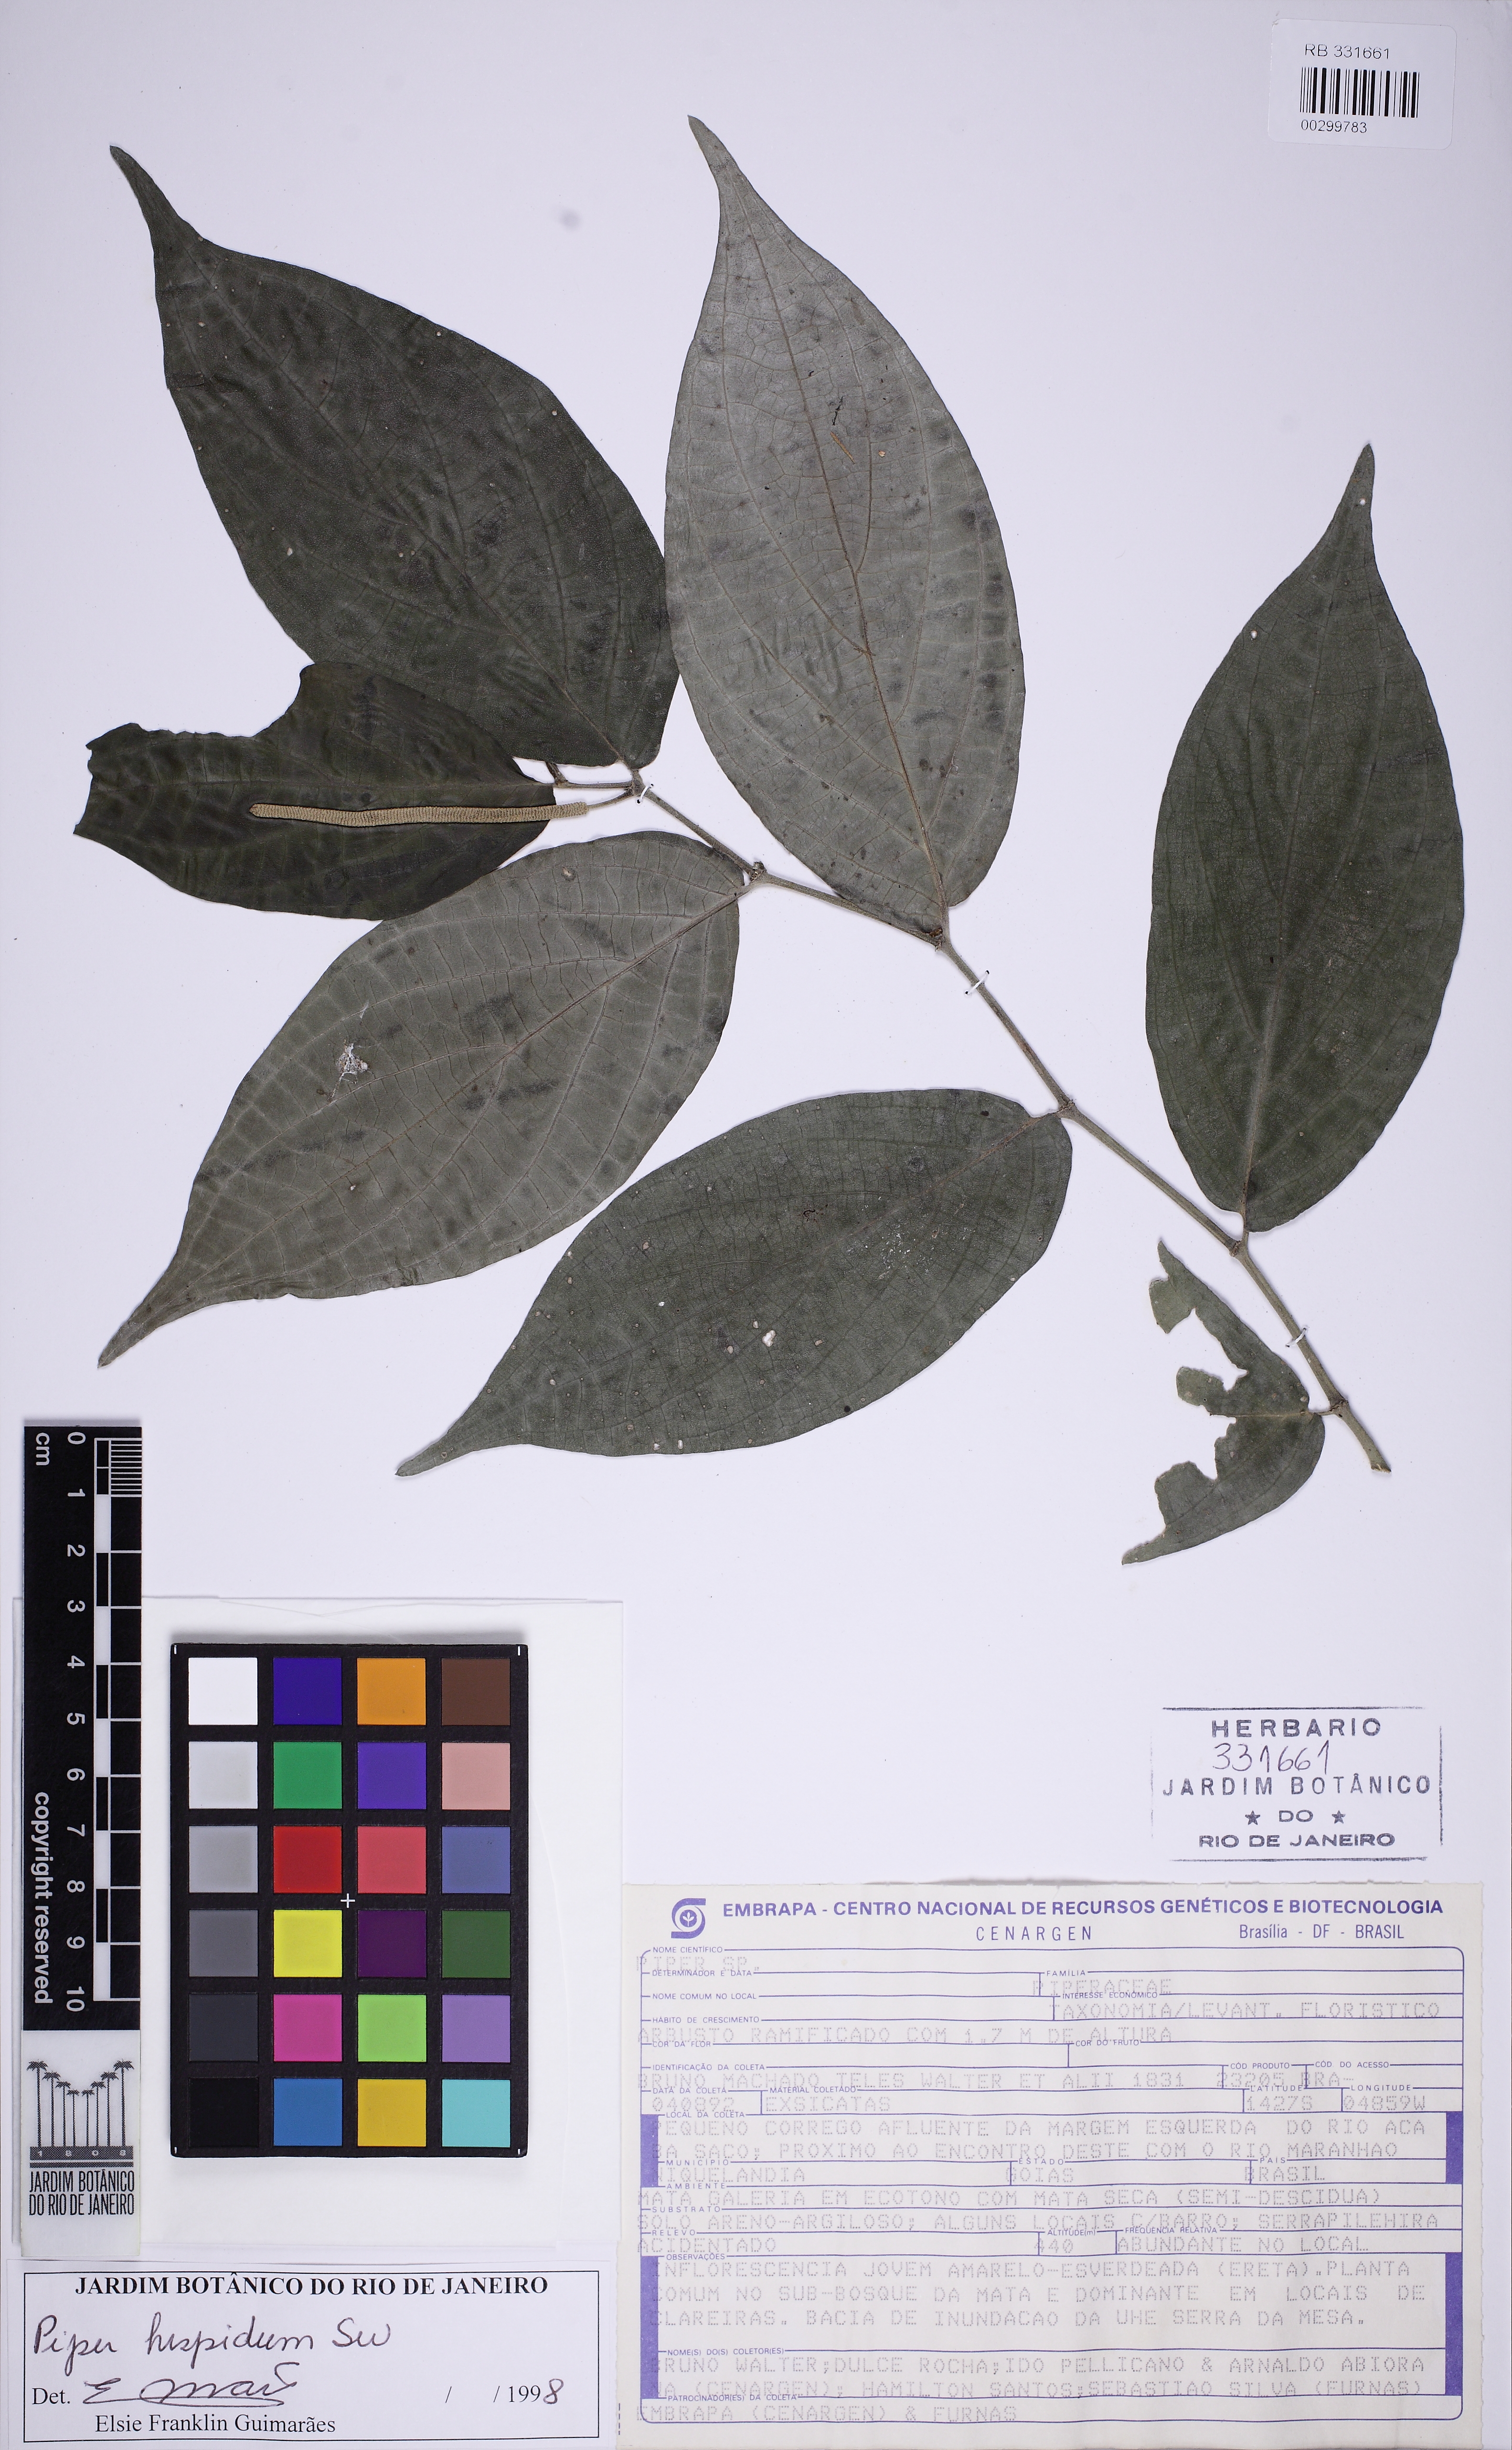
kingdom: Plantae
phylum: Tracheophyta
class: Magnoliopsida
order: Piperales
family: Piperaceae
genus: Piper
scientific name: Piper hispidum
